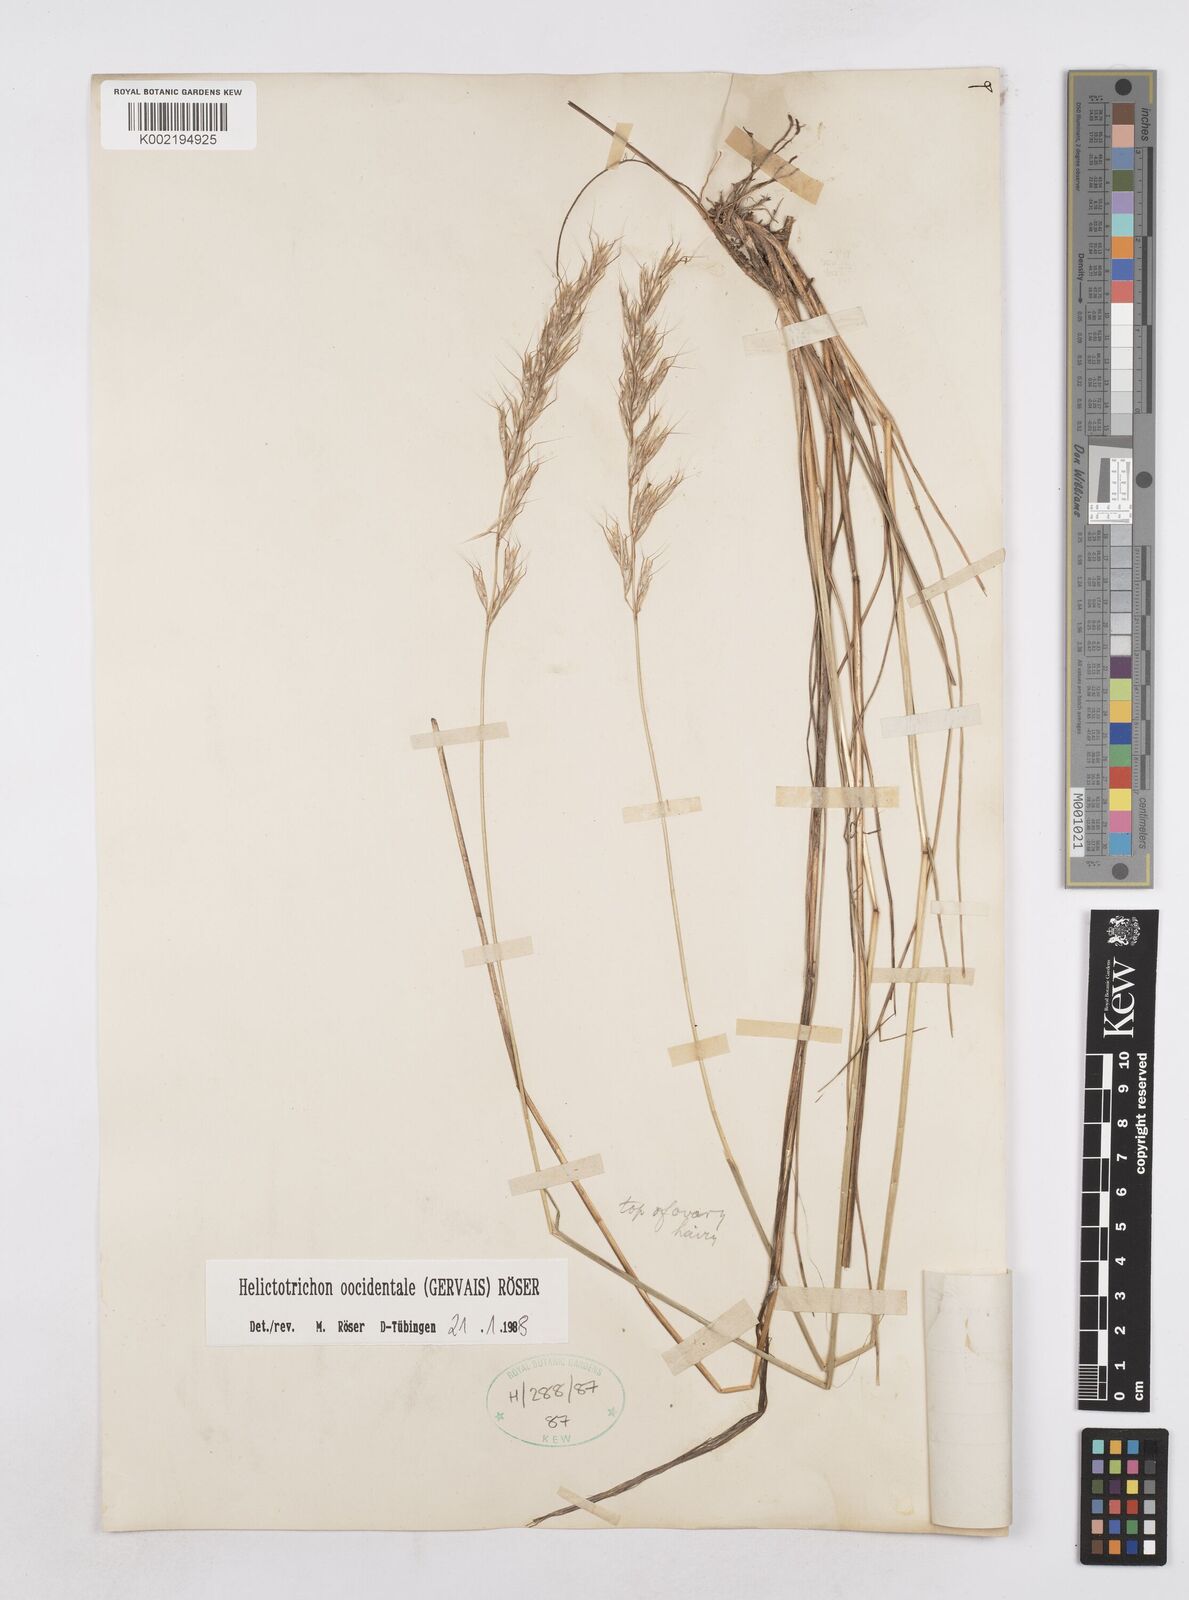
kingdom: Plantae
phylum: Tracheophyta
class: Liliopsida
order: Poales
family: Poaceae
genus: Helictochloa
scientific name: Helictochloa marginata
